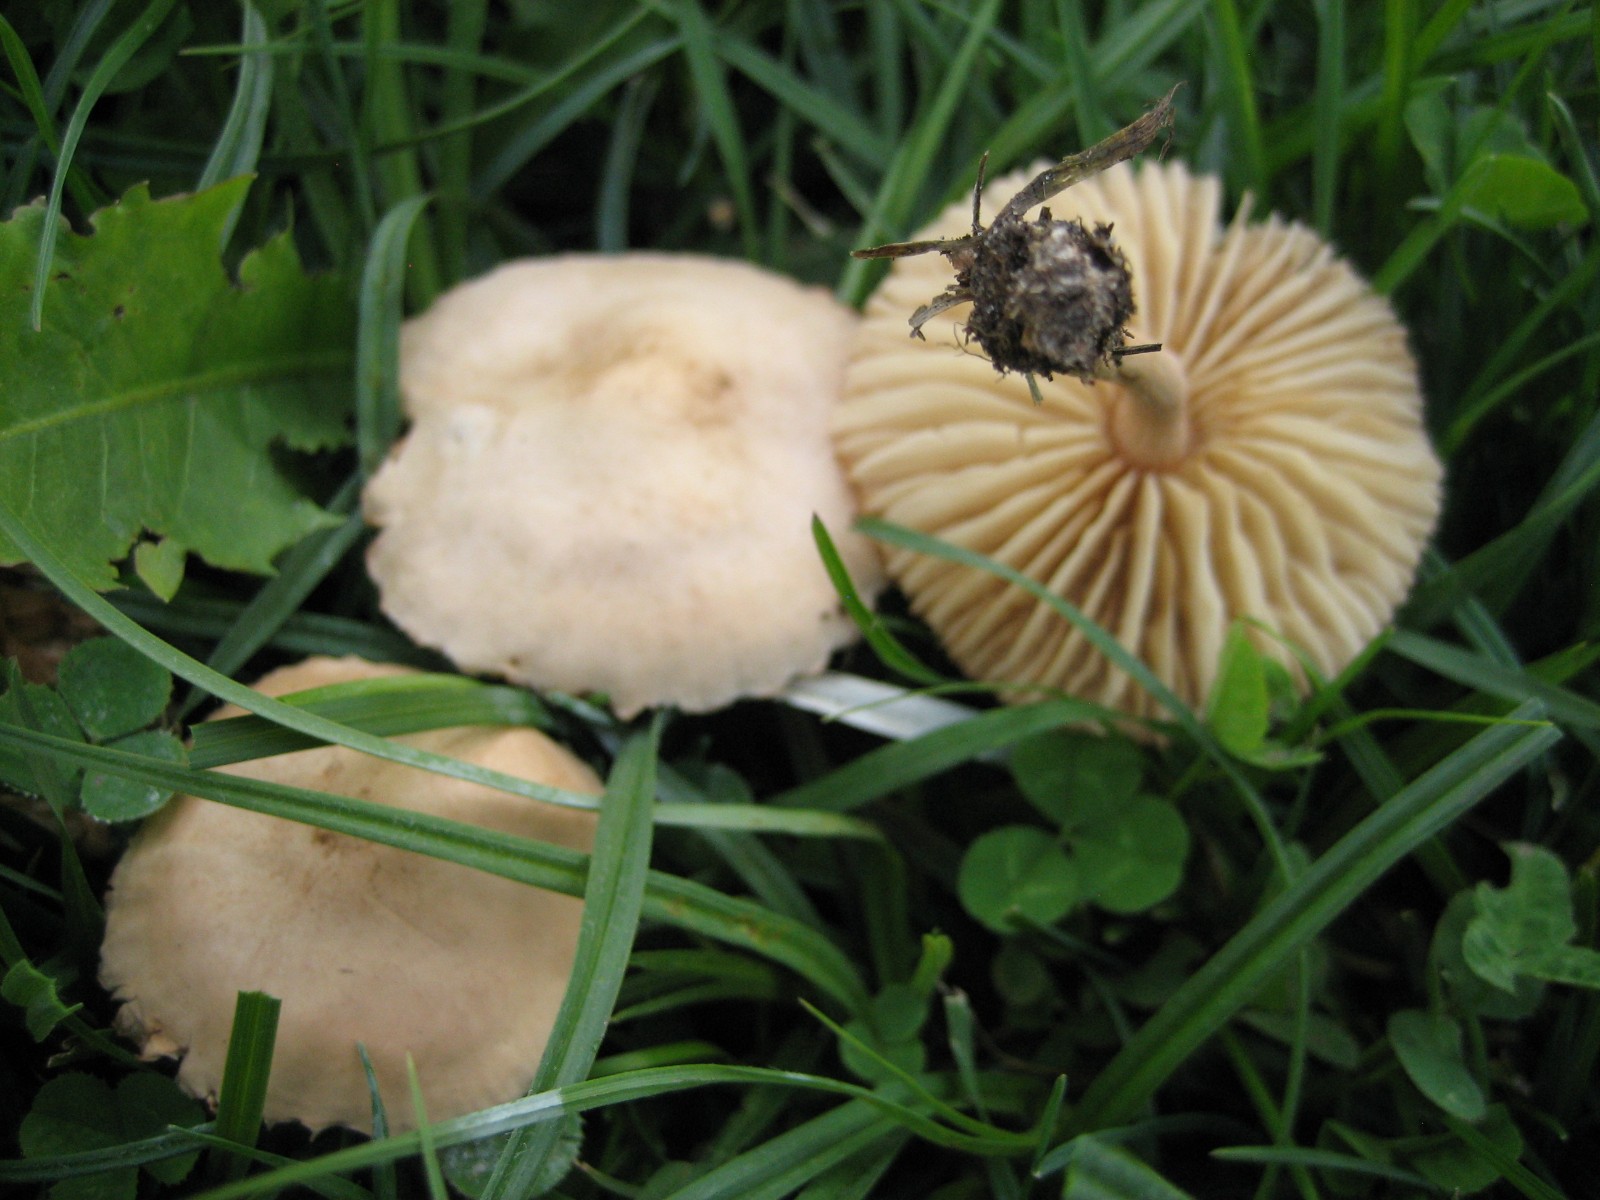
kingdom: Fungi
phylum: Basidiomycota
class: Agaricomycetes
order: Agaricales
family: Marasmiaceae
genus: Marasmius
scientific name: Marasmius oreades
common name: elledans-bruskhat
